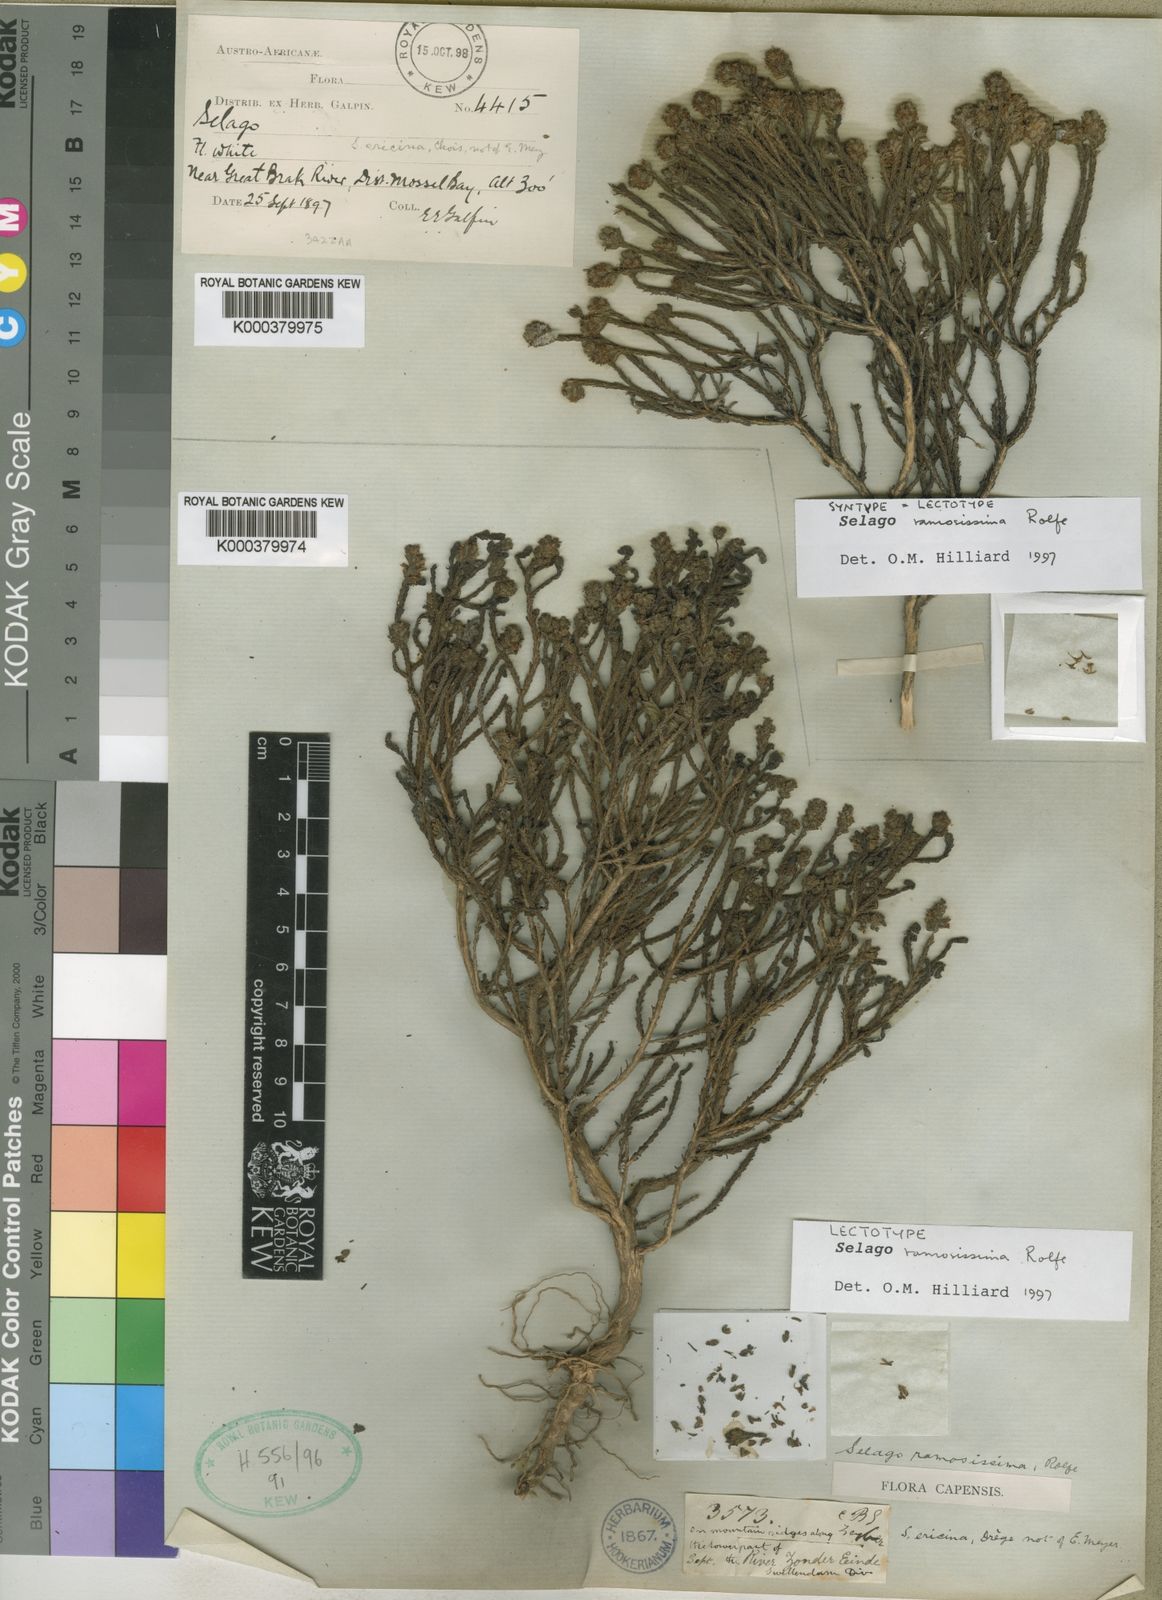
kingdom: Plantae
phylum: Tracheophyta
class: Magnoliopsida
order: Lamiales
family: Scrophulariaceae
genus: Selago
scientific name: Selago ramosissima
